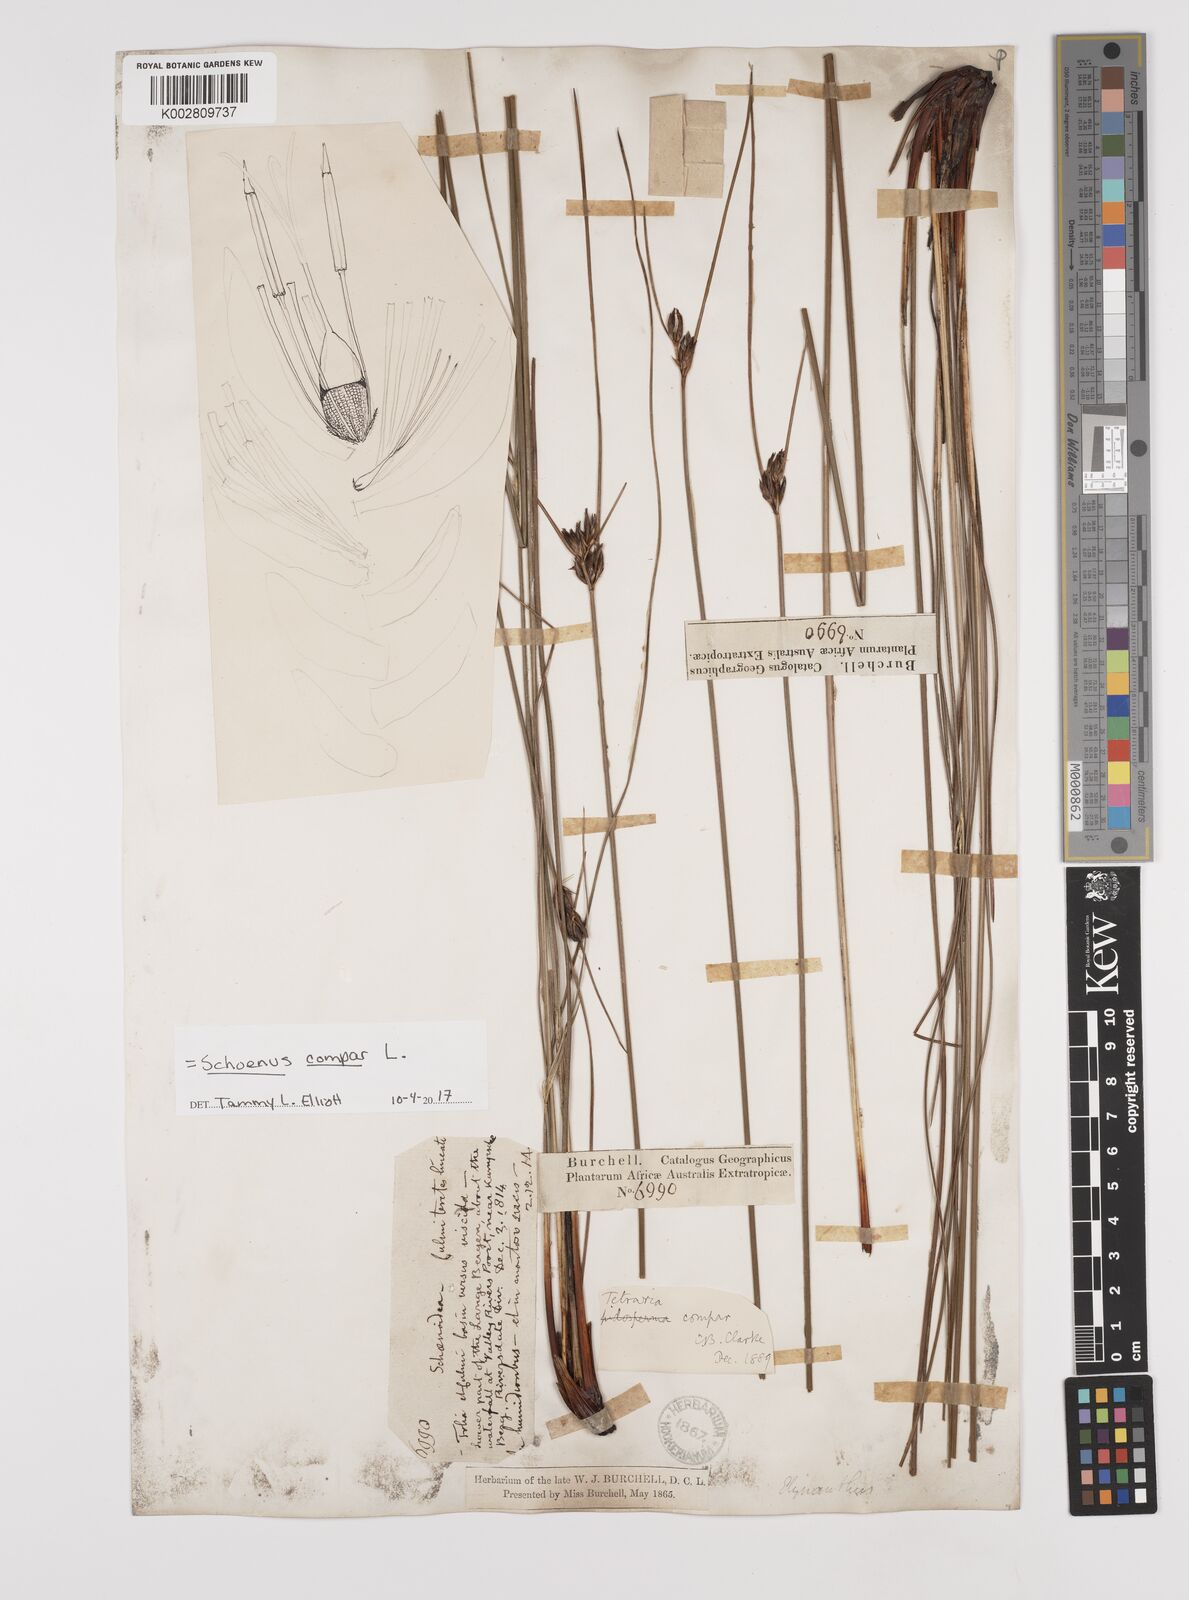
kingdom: Plantae
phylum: Tracheophyta
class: Liliopsida
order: Poales
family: Cyperaceae
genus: Schoenus
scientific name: Schoenus compar
